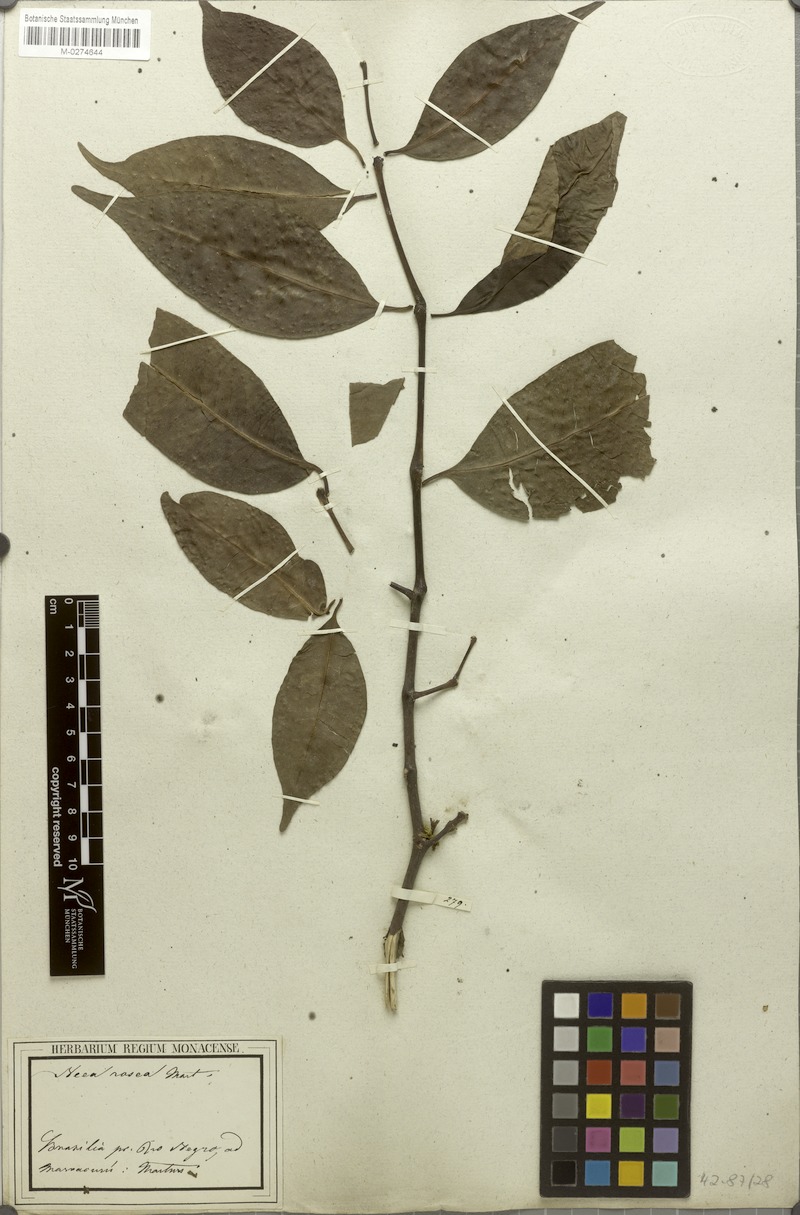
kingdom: Plantae
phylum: Tracheophyta
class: Magnoliopsida
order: Caryophyllales
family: Nyctaginaceae
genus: Neea
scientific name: Neea oppositifolia
